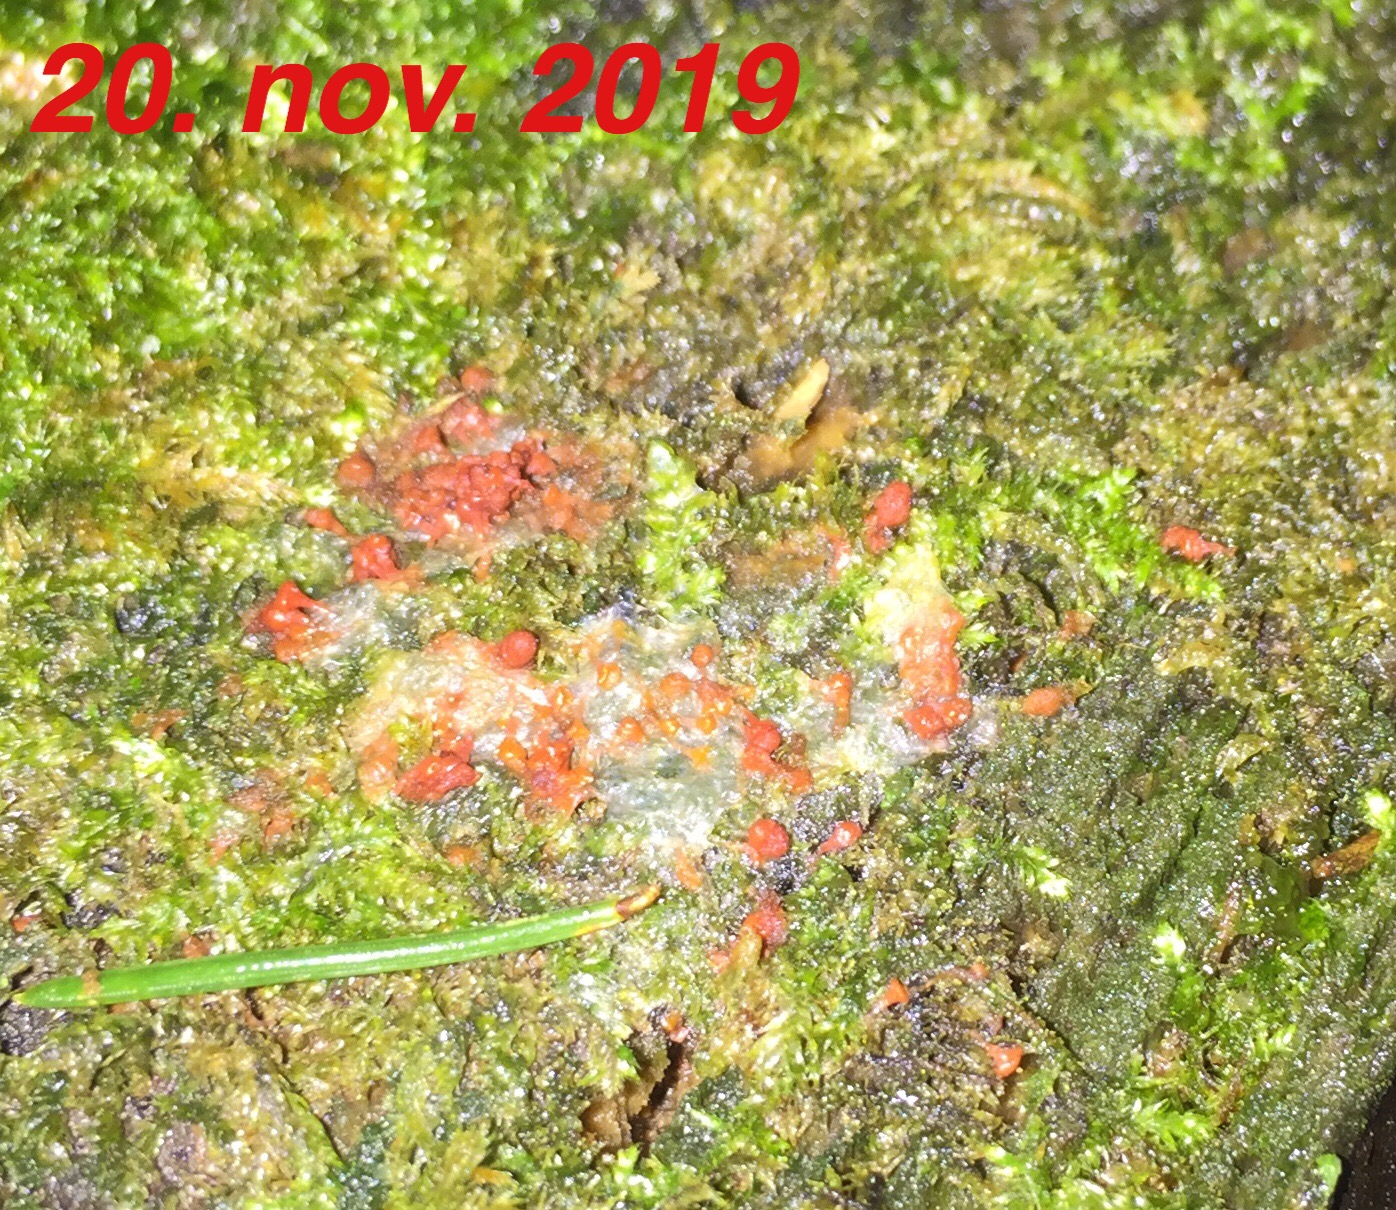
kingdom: Protozoa
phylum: Mycetozoa
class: Myxomycetes
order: Trichiales
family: Trichiaceae
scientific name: Trichiaceae
